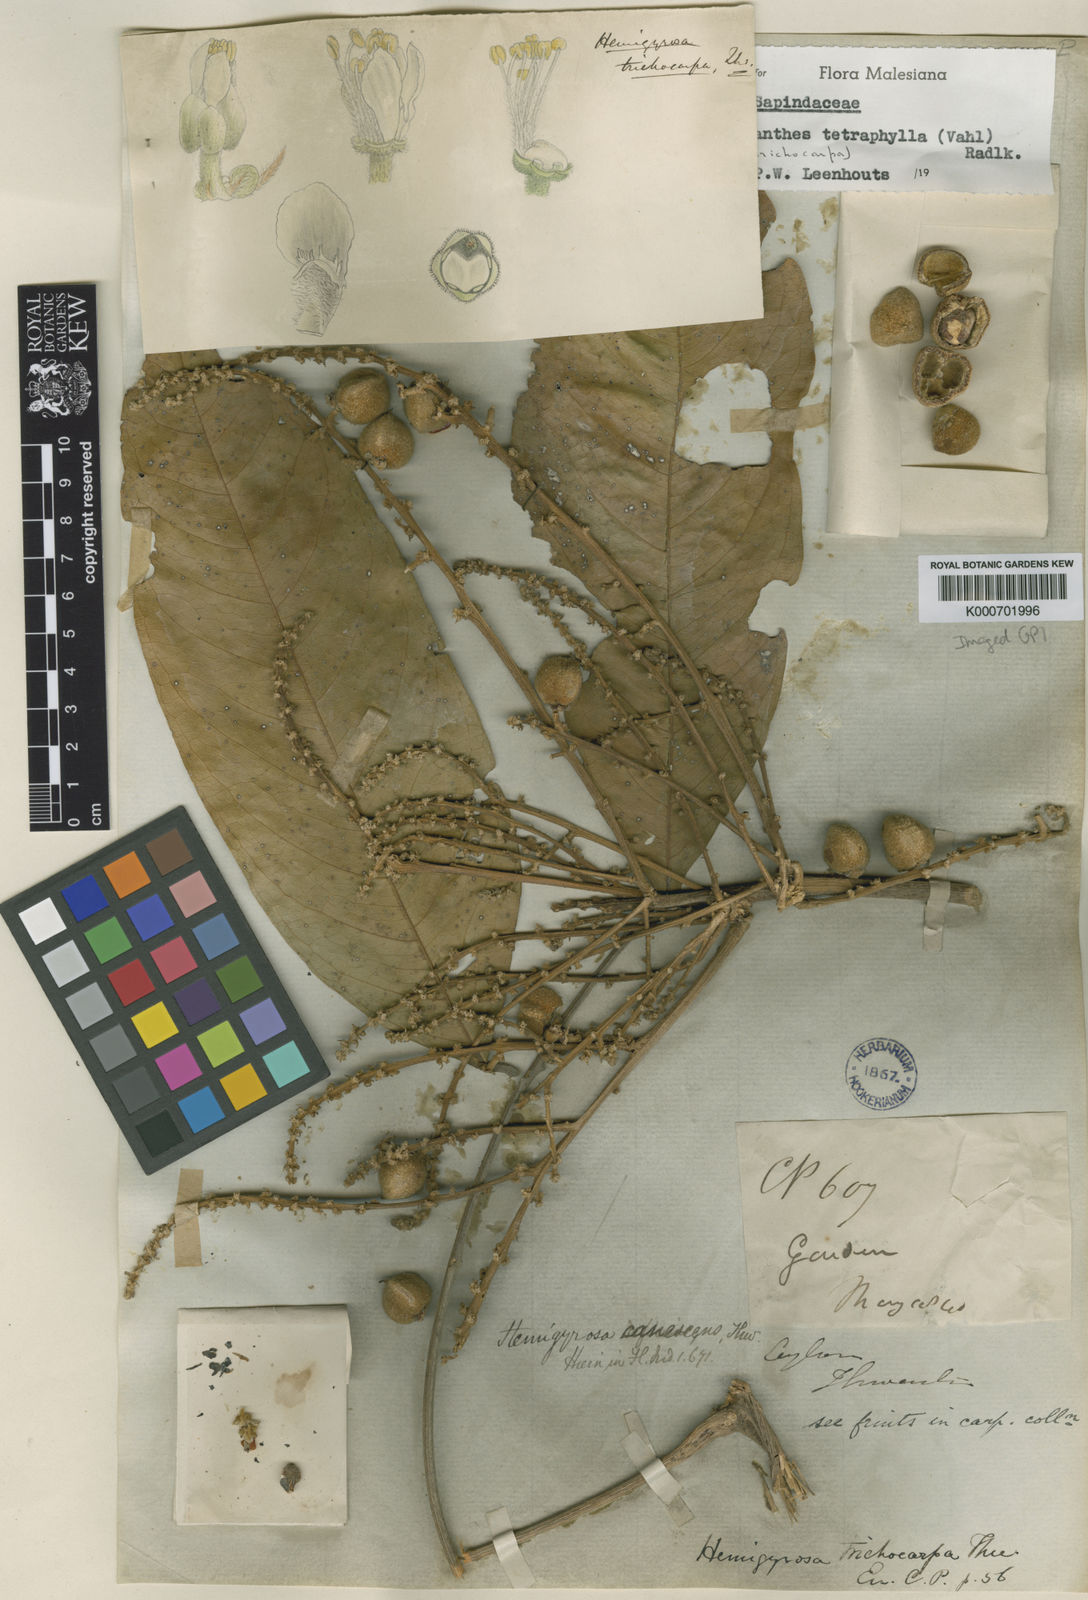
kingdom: Plantae
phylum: Tracheophyta
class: Magnoliopsida
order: Sapindales
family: Sapindaceae
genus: Lepisanthes
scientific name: Lepisanthes tetraphylla
